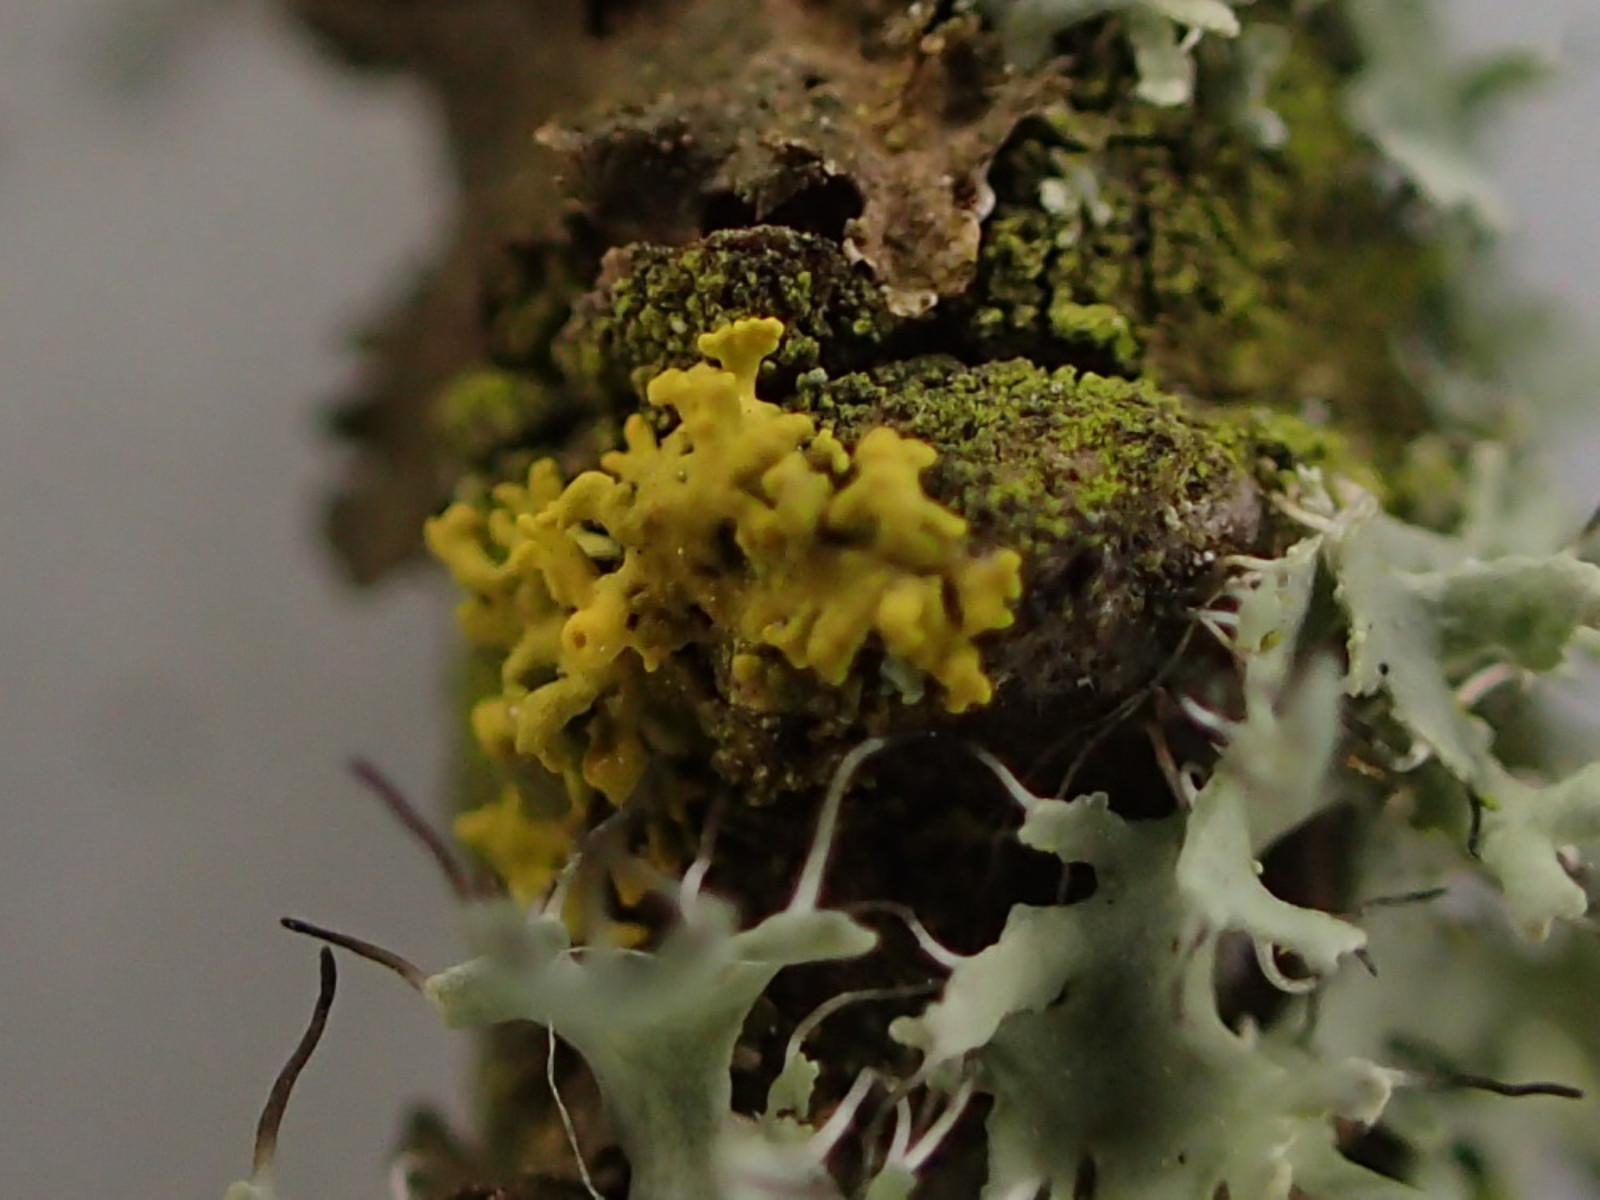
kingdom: Fungi
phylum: Ascomycota
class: Lecanoromycetes
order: Teloschistales
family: Teloschistaceae
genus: Polycauliona
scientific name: Polycauliona polycarpa
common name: mangefrugtet orangelav
